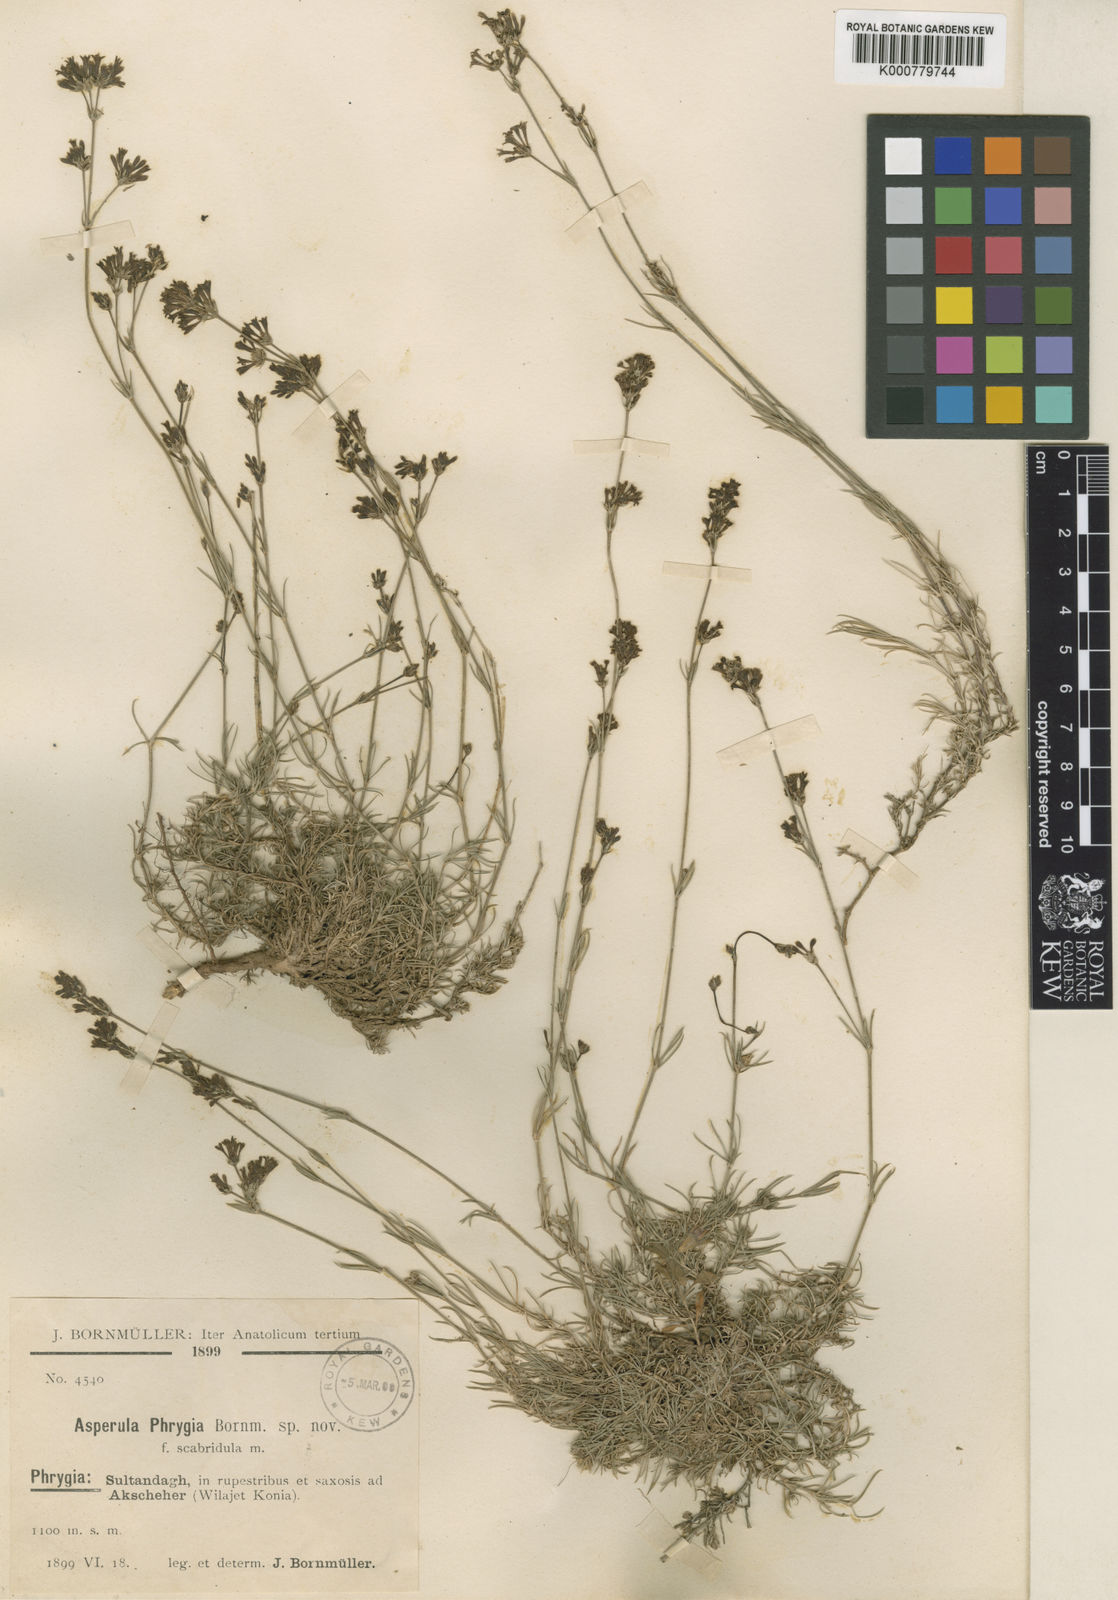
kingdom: Plantae
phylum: Tracheophyta
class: Magnoliopsida
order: Gentianales
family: Rubiaceae
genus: Cynanchica
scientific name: Cynanchica stricta
